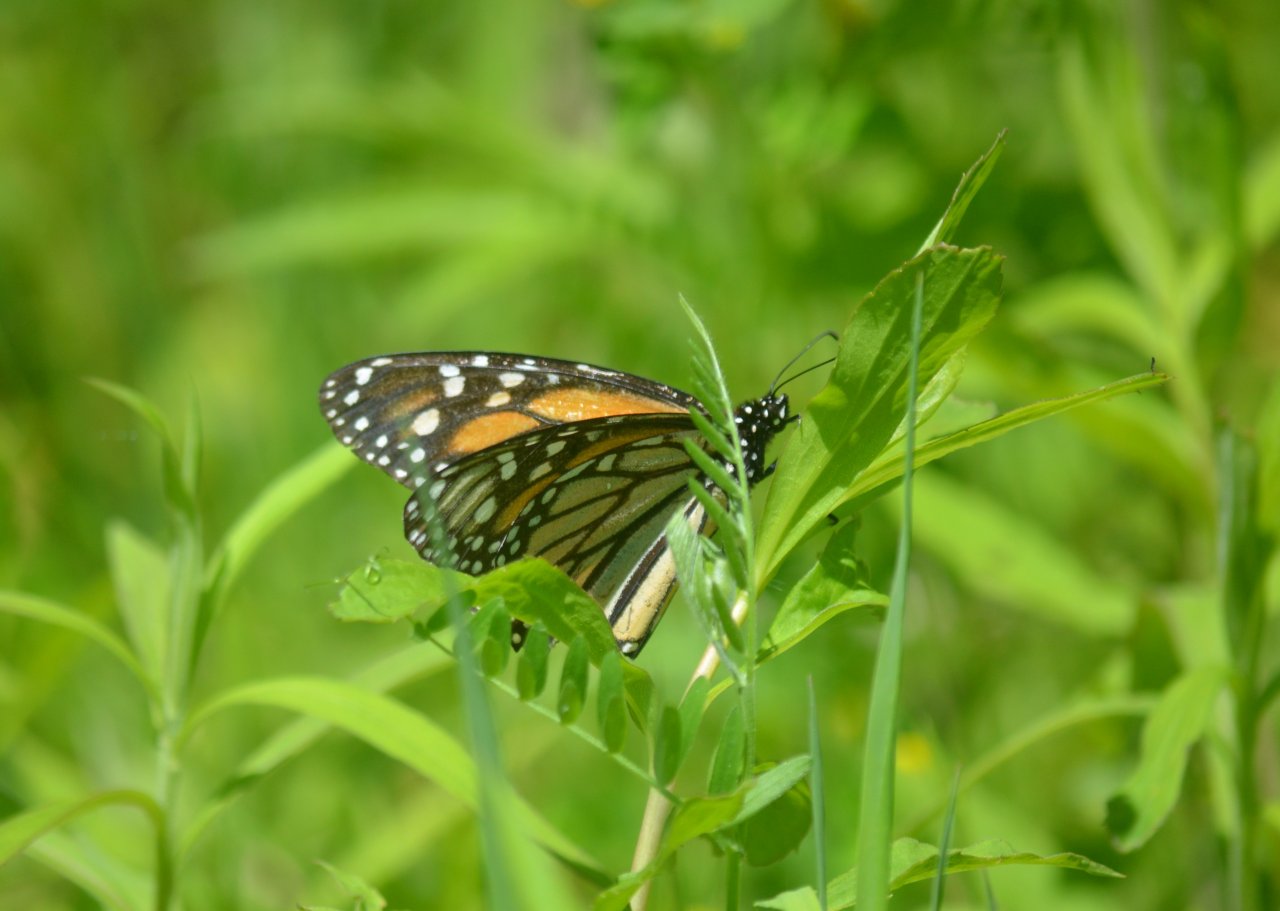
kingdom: Animalia
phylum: Arthropoda
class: Insecta
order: Lepidoptera
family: Nymphalidae
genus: Danaus
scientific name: Danaus plexippus
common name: Monarch
